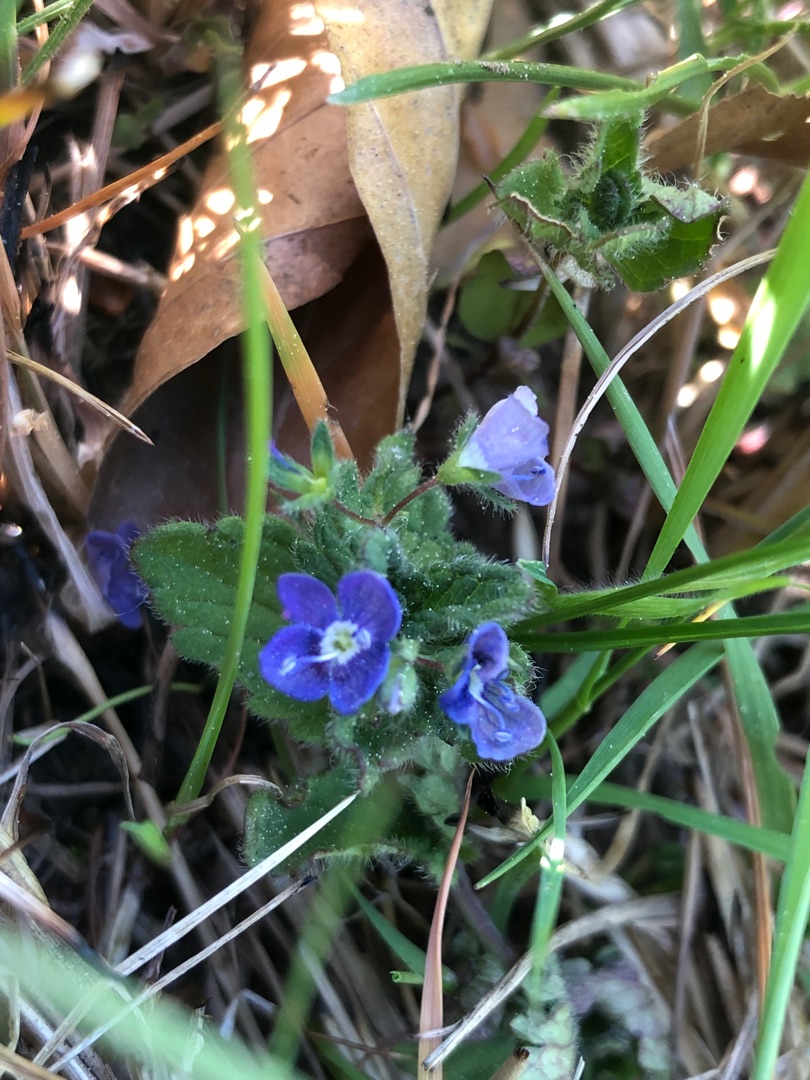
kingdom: Plantae
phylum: Tracheophyta
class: Magnoliopsida
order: Lamiales
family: Plantaginaceae
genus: Veronica
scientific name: Veronica chamaedrys
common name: Tveskægget ærenpris
